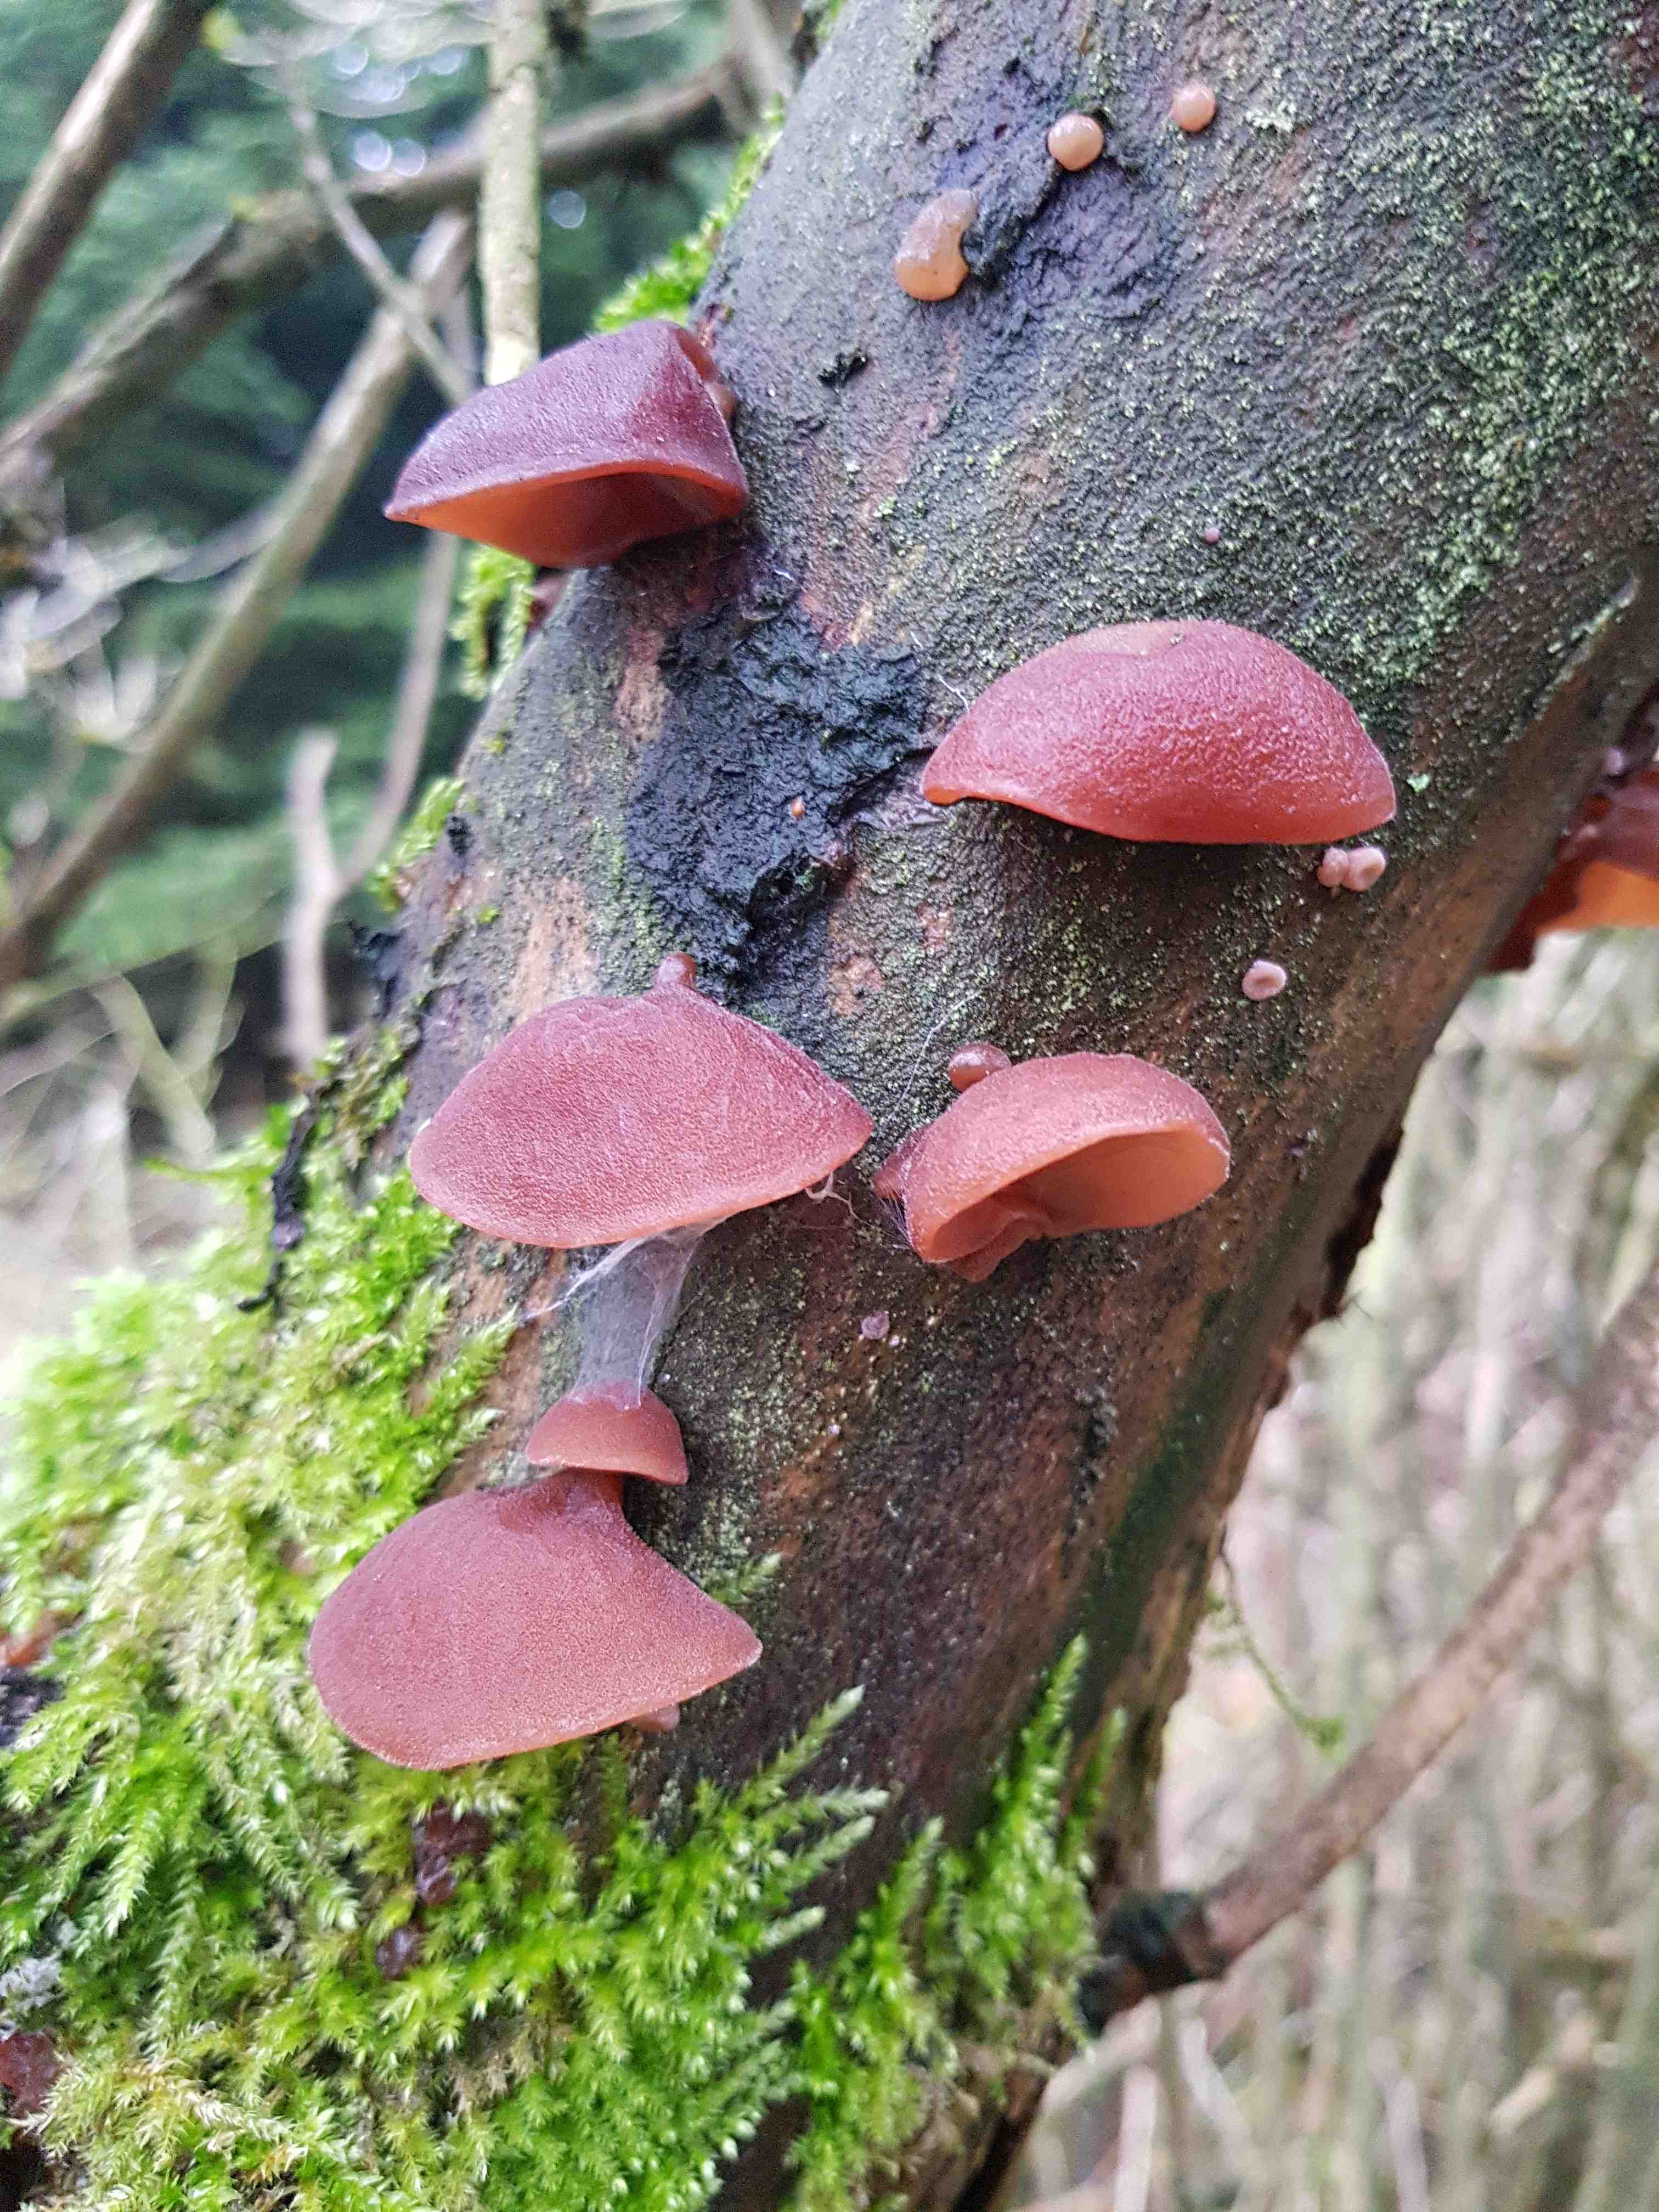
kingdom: Fungi
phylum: Basidiomycota
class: Agaricomycetes
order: Auriculariales
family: Auriculariaceae
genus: Auricularia
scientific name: Auricularia auricula-judae
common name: almindelig judasøre
